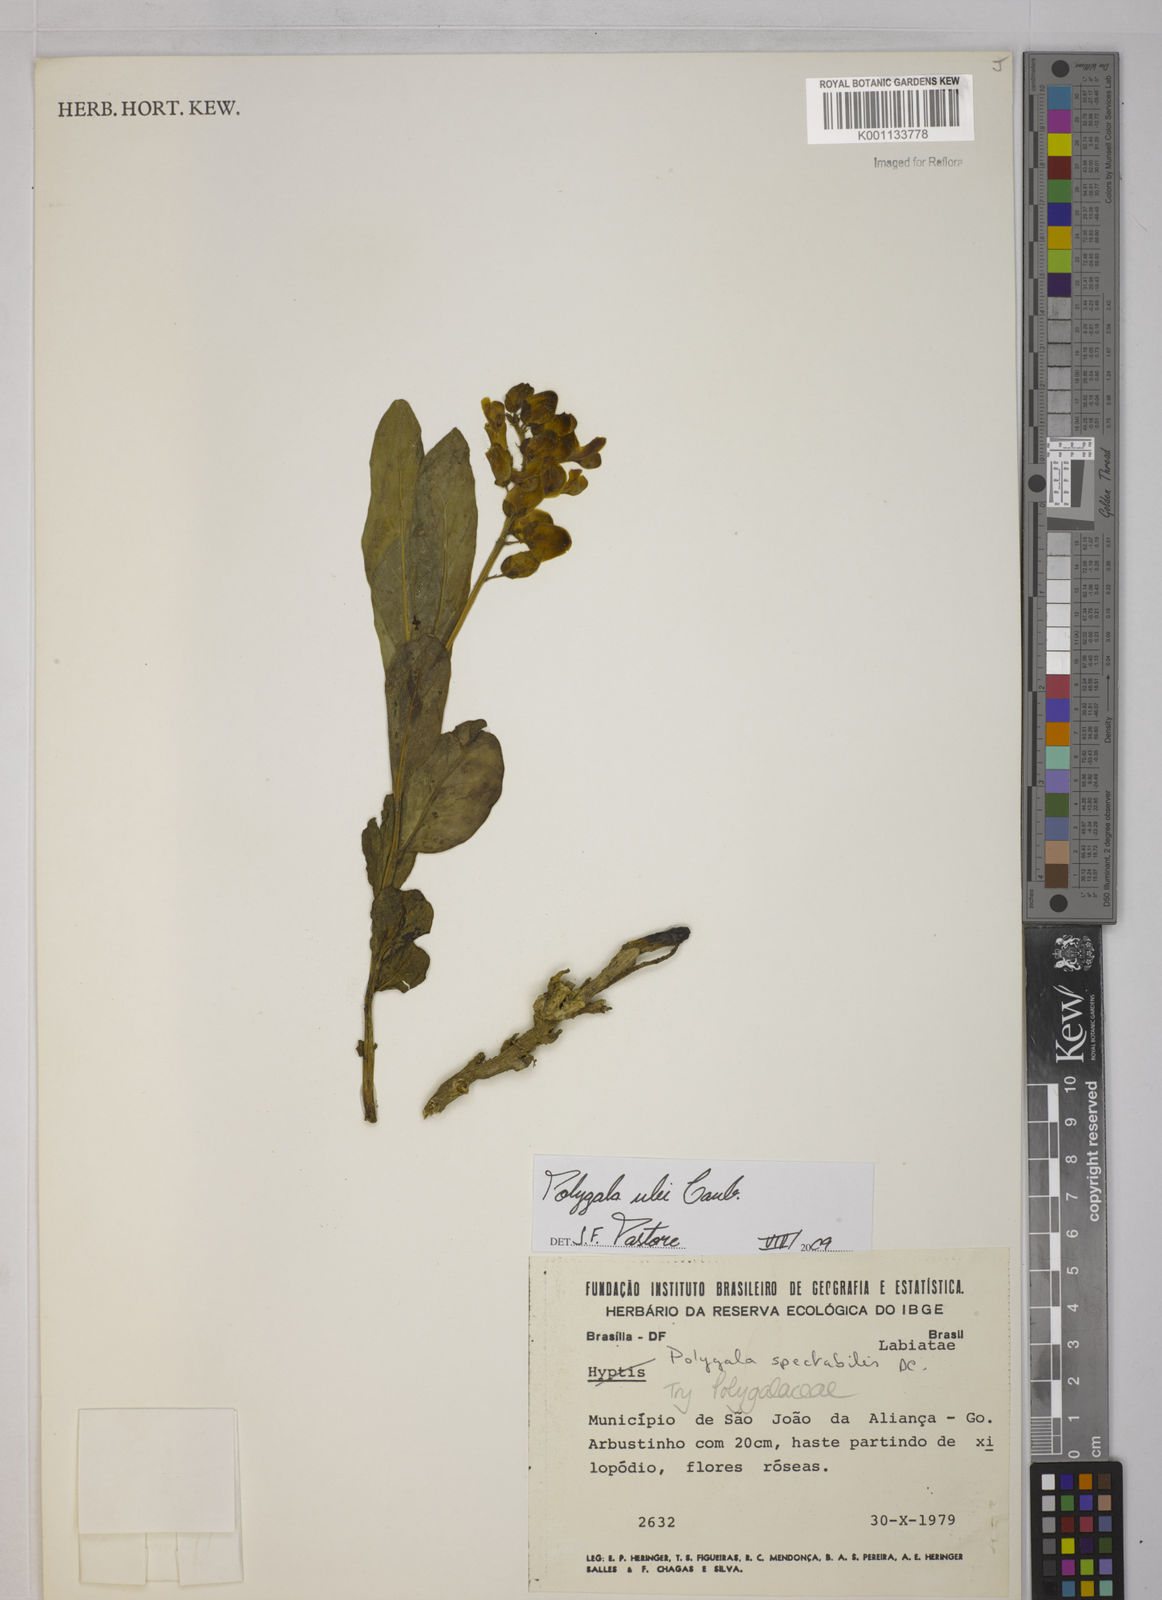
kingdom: Plantae
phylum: Tracheophyta
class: Magnoliopsida
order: Fabales
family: Polygalaceae
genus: Caamembeca
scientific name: Caamembeca ulei
